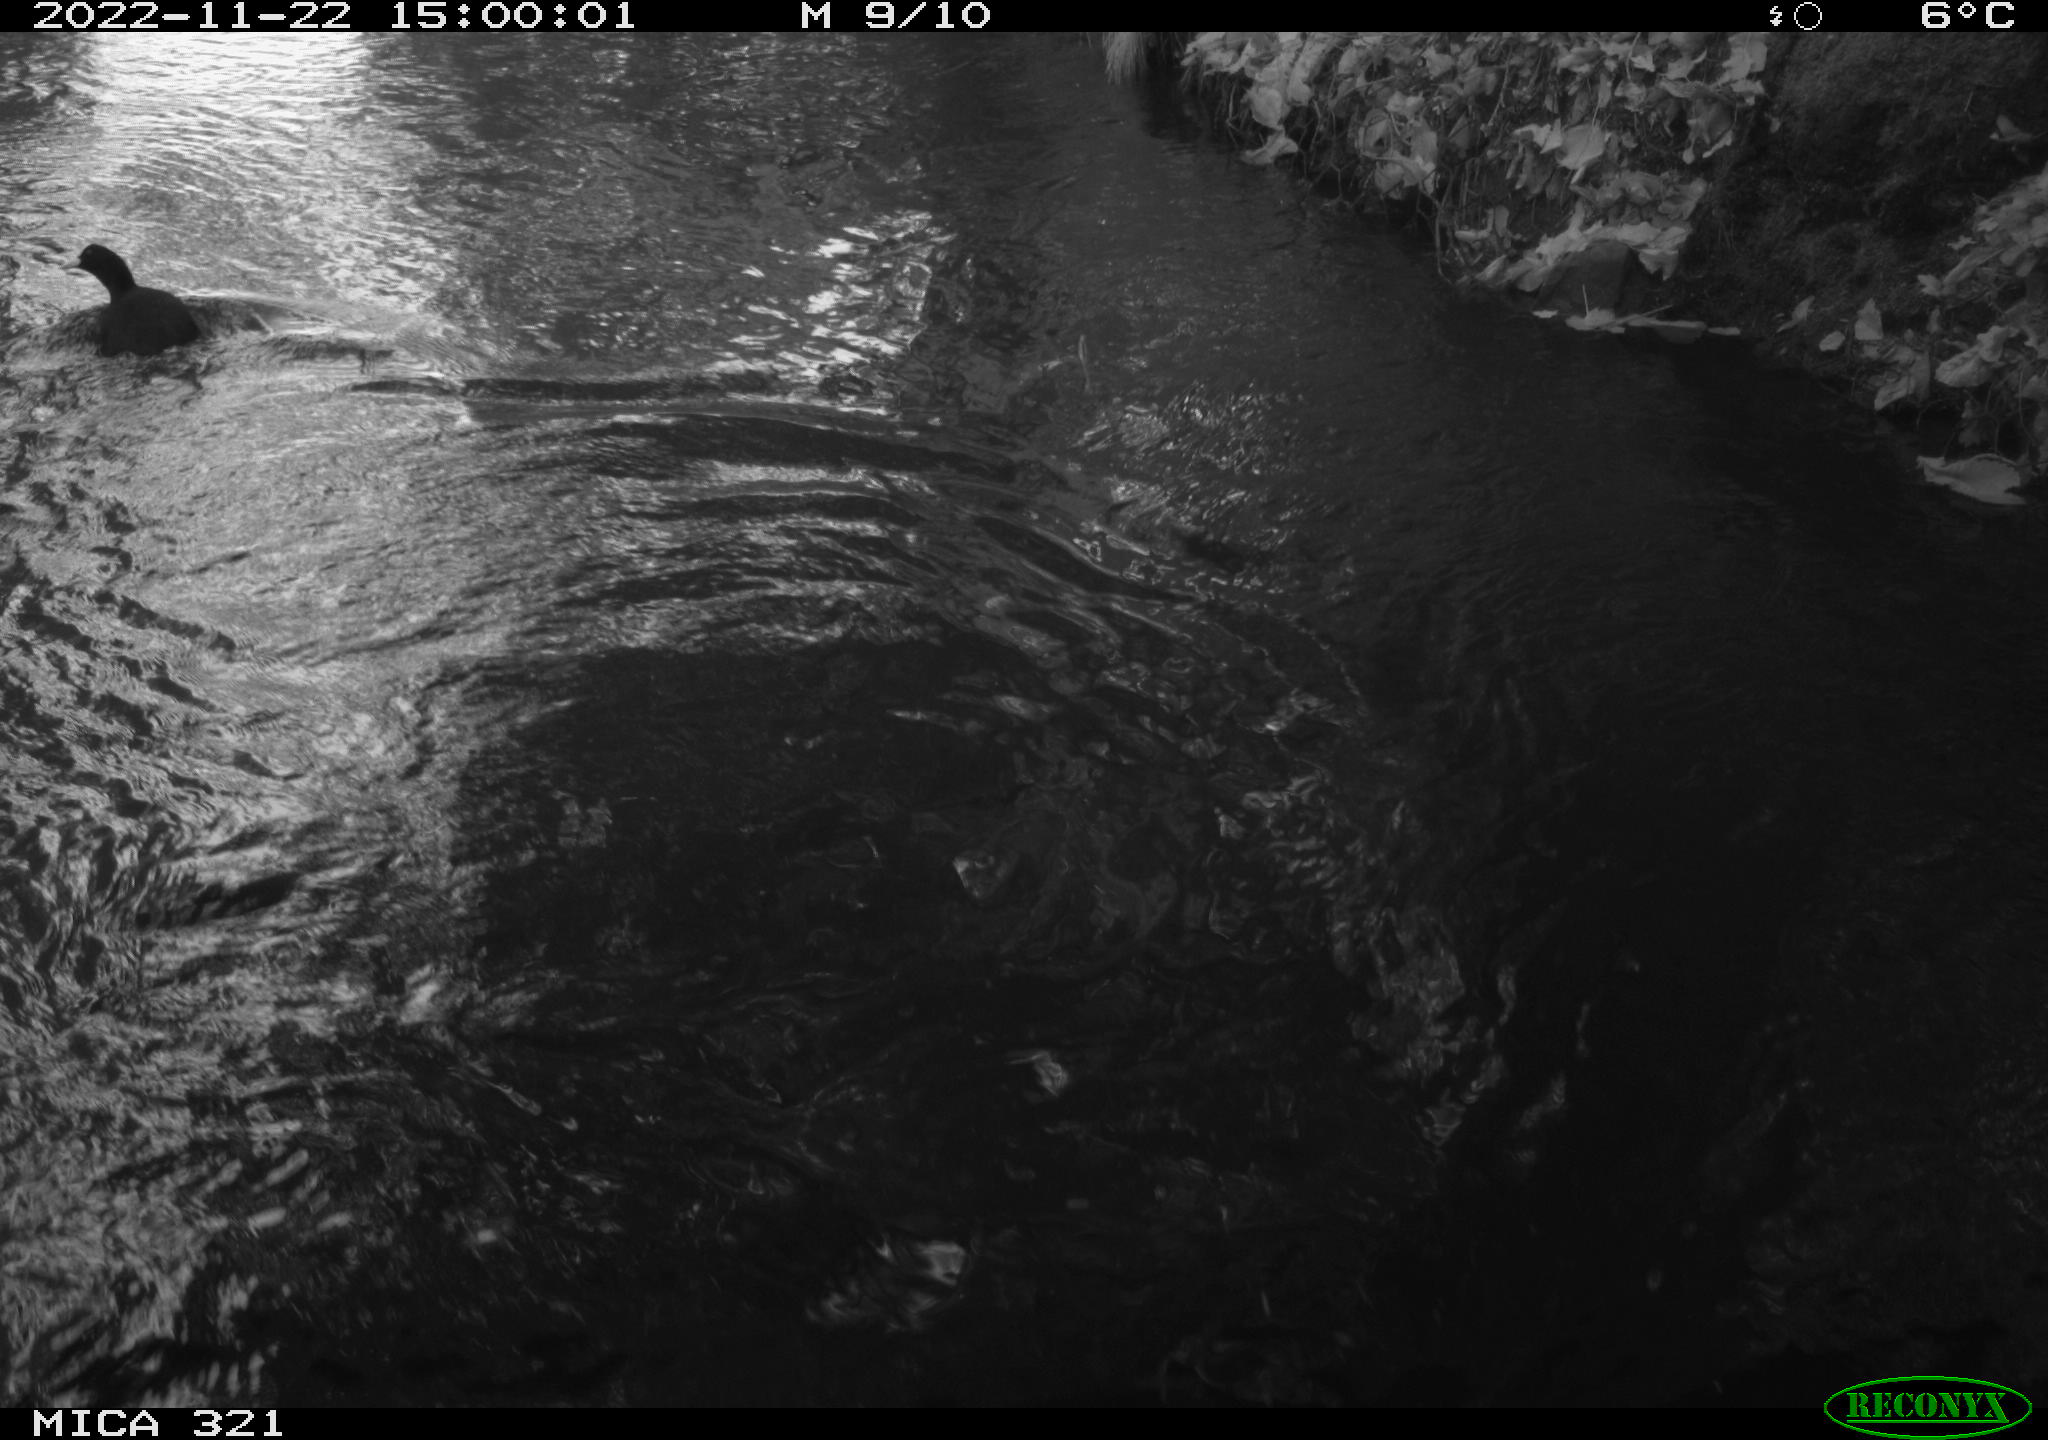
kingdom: Animalia
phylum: Chordata
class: Aves
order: Anseriformes
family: Anatidae
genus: Anas
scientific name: Anas
